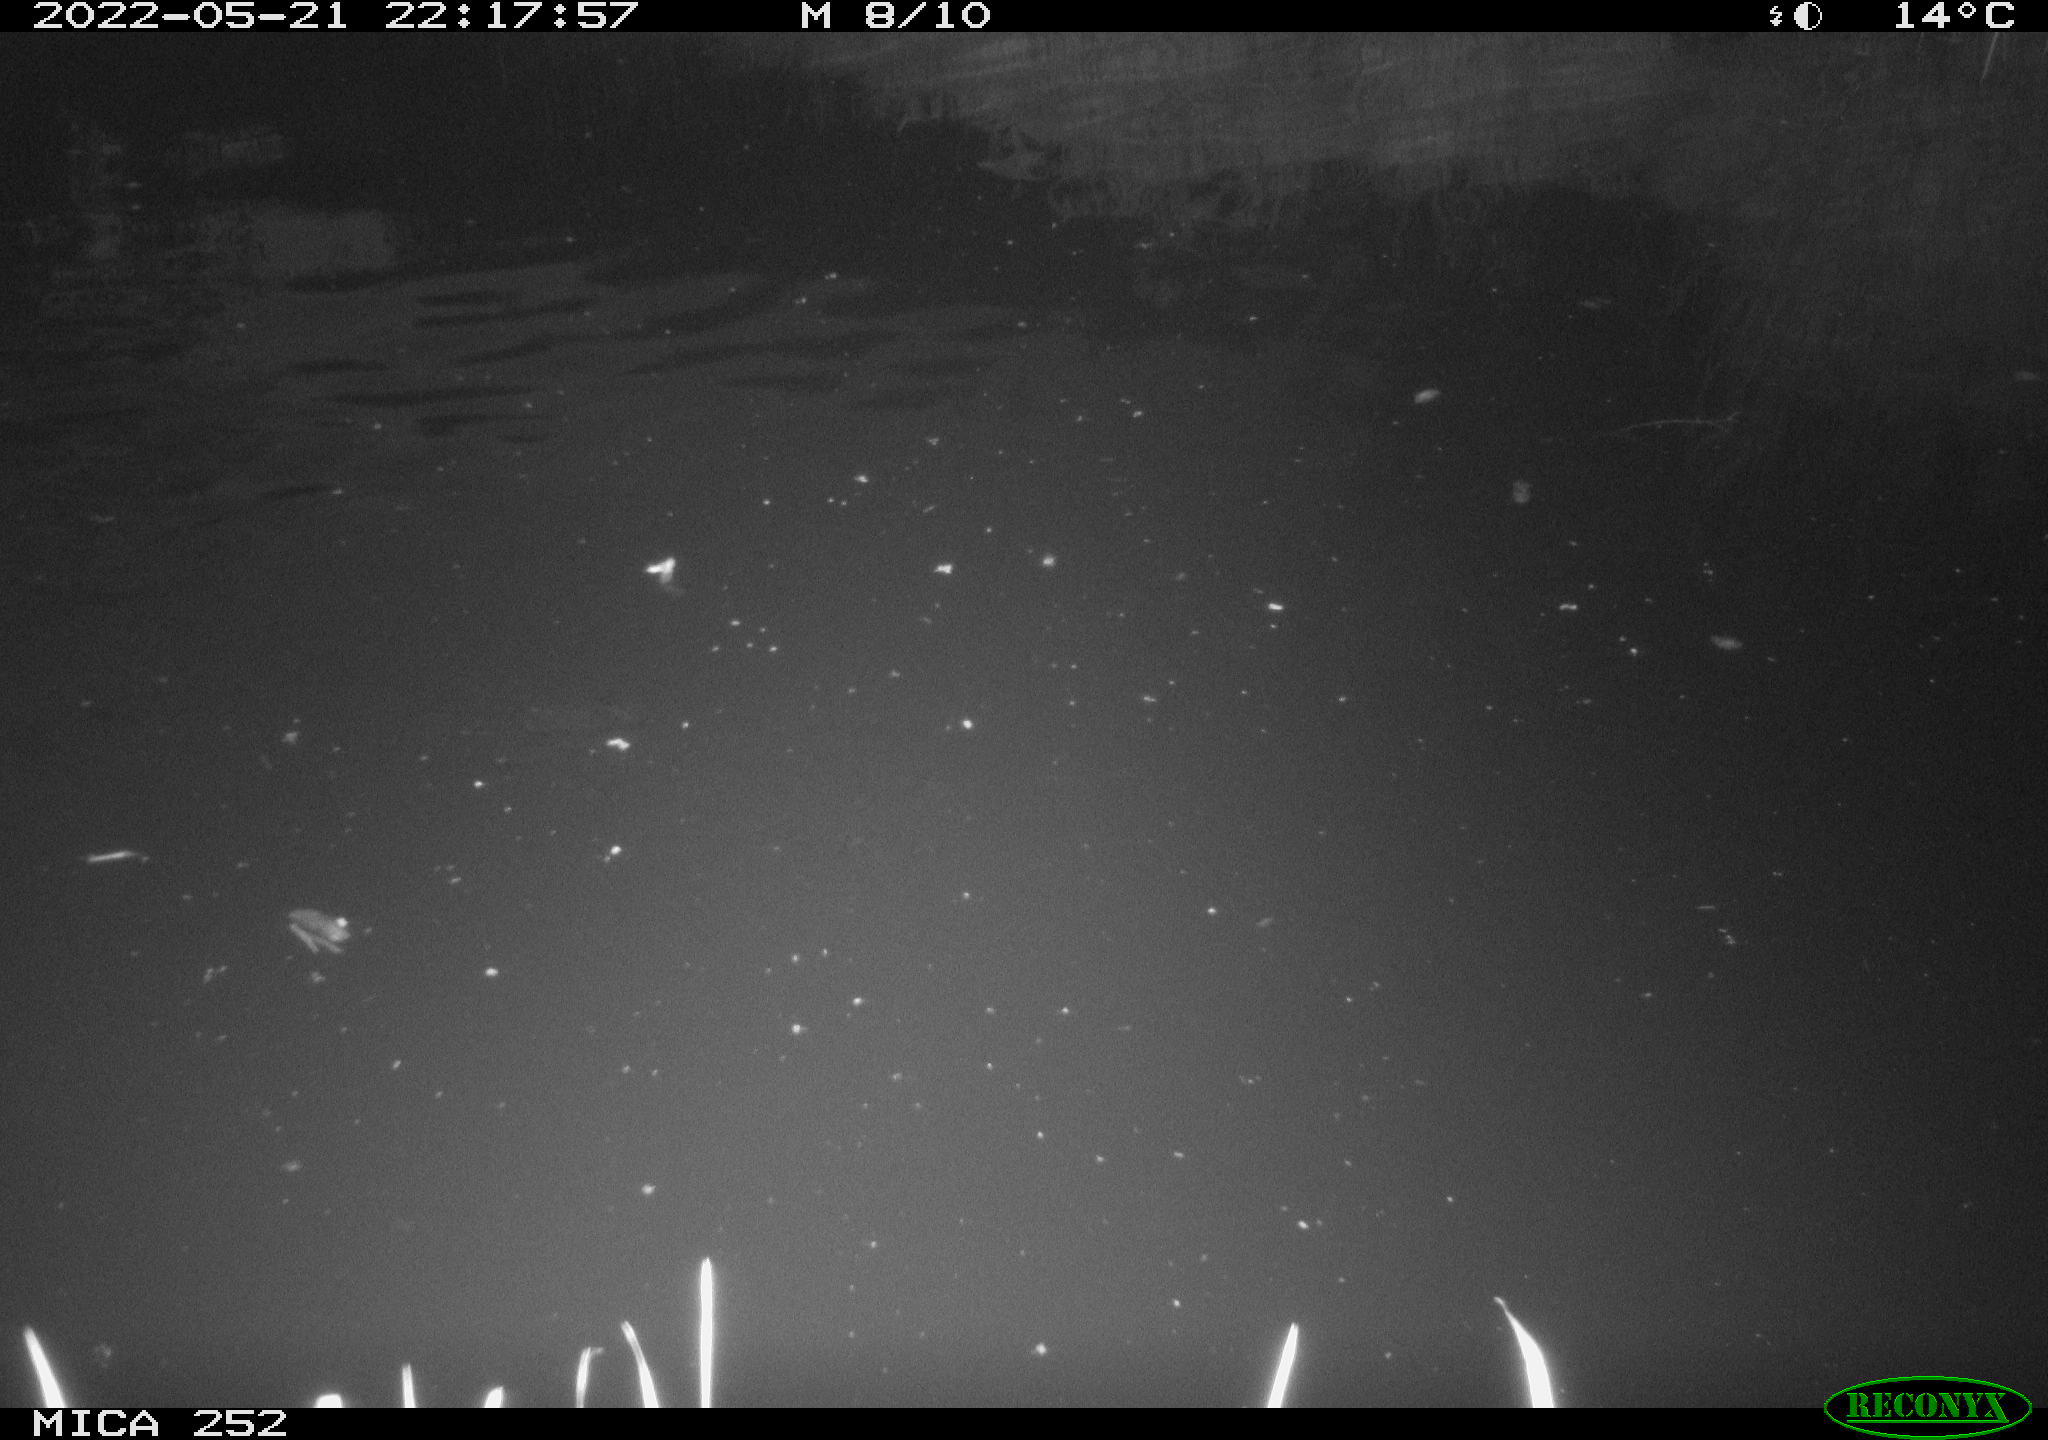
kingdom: Animalia
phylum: Chordata
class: Mammalia
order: Rodentia
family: Castoridae
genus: Castor
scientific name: Castor fiber
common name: Eurasian beaver
